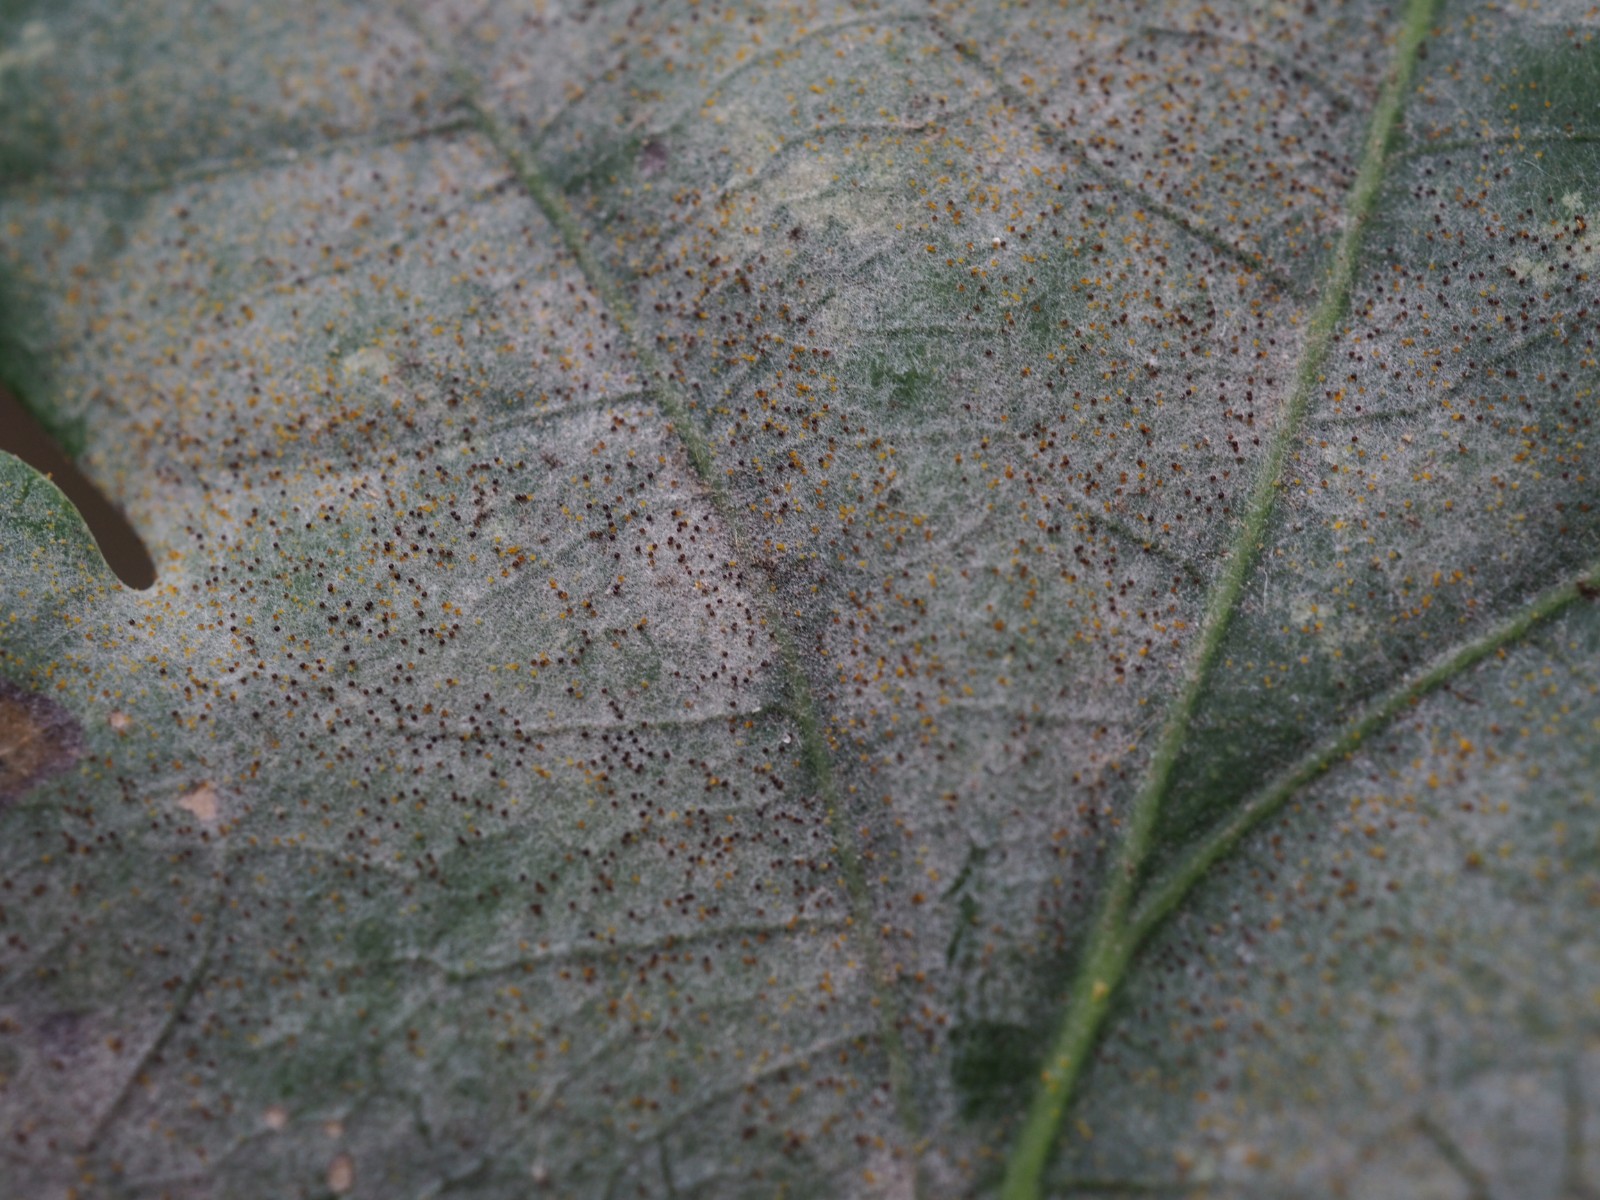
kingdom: Fungi
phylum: Ascomycota
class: Leotiomycetes
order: Helotiales
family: Erysiphaceae
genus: Erysiphe
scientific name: Erysiphe alphitoides
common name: ege-meldug
